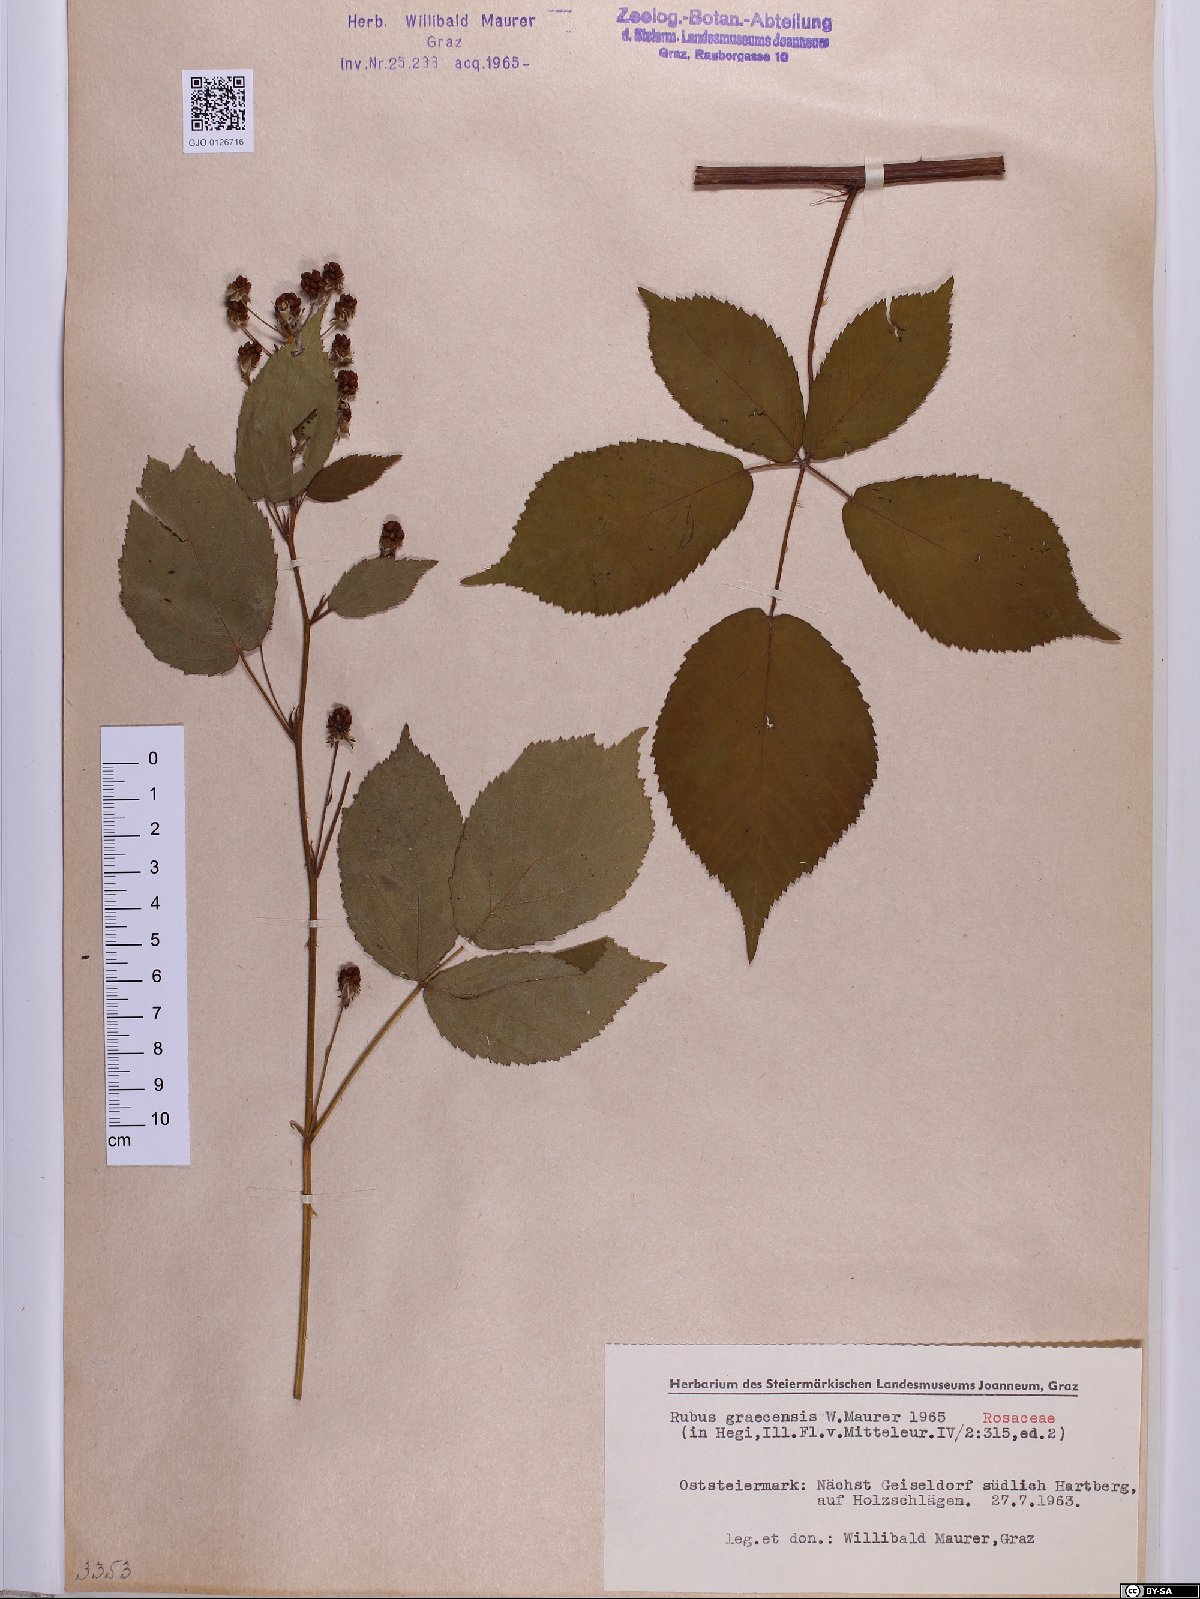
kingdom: Plantae
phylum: Tracheophyta
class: Magnoliopsida
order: Rosales
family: Rosaceae
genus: Rubus
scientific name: Rubus graecensis
